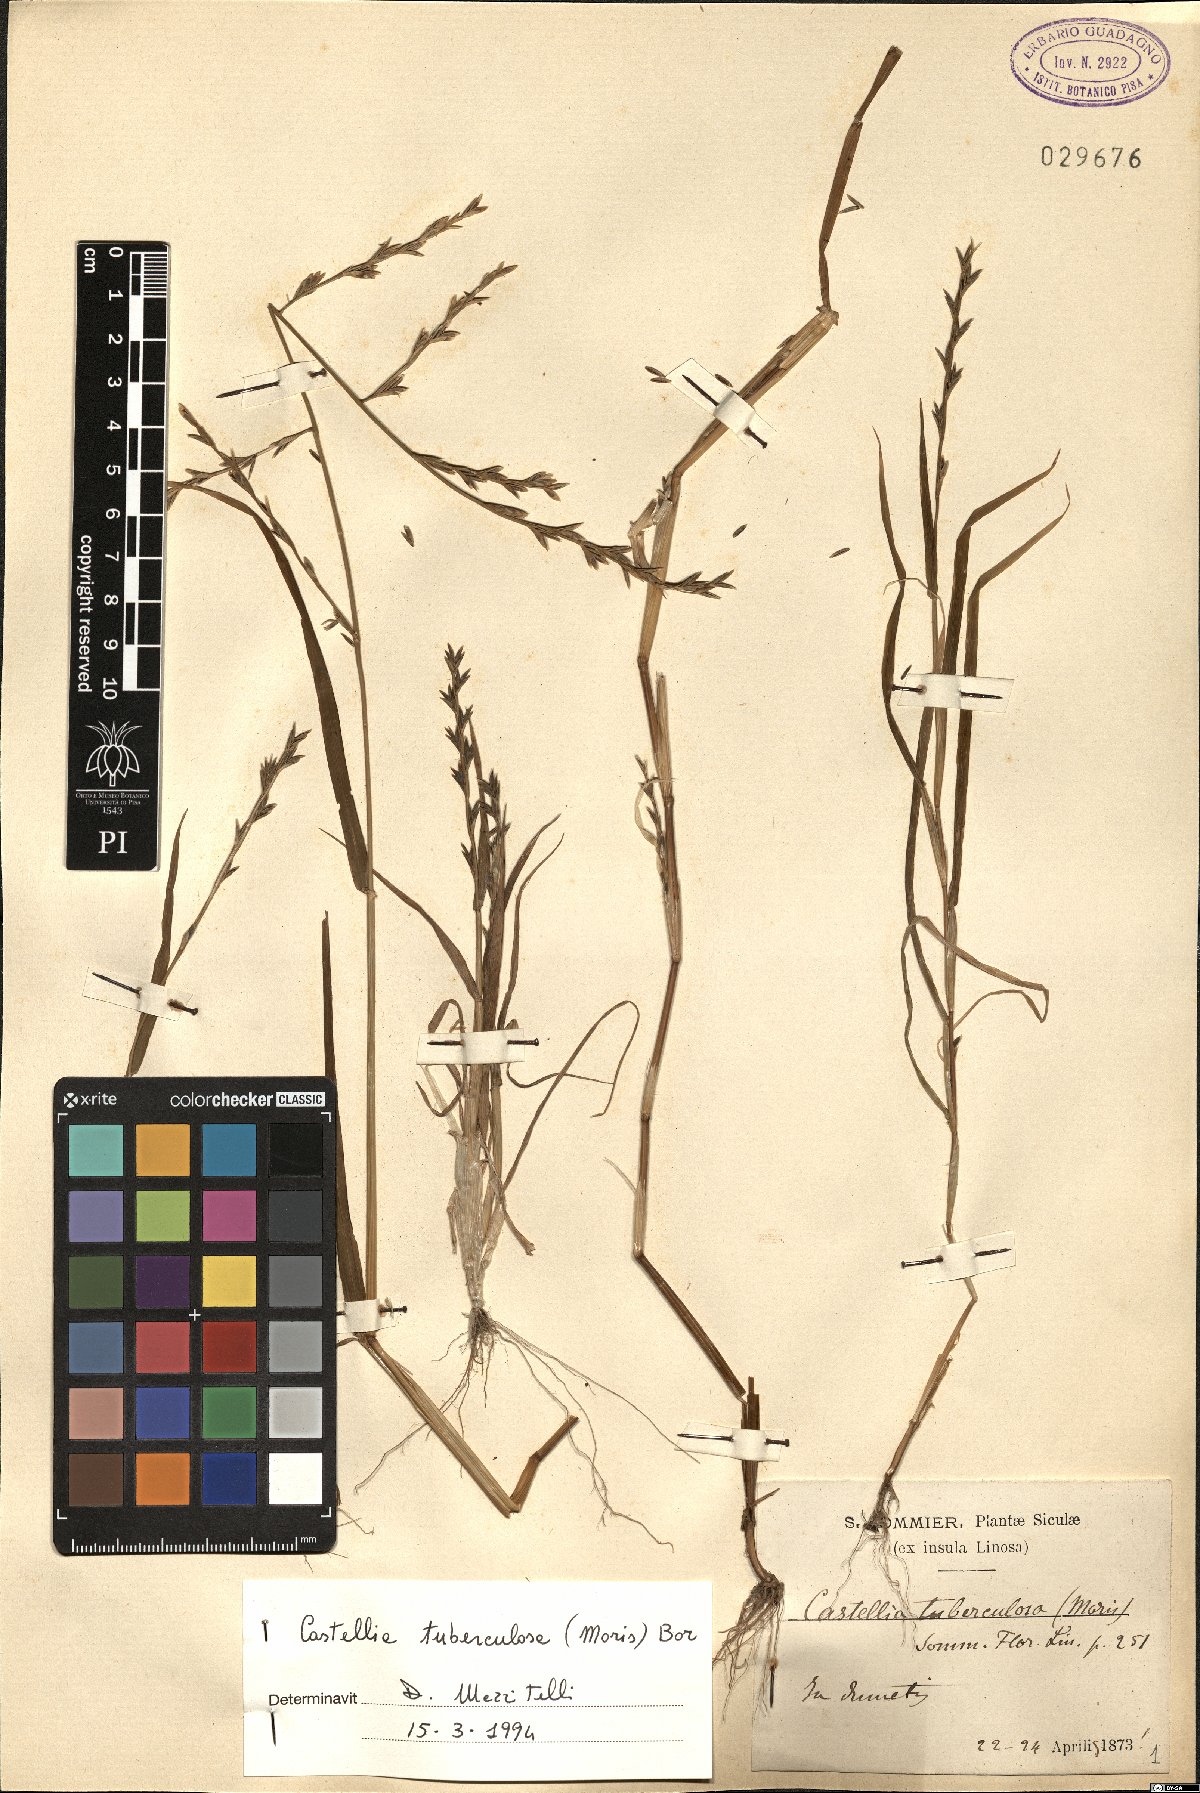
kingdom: Plantae
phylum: Tracheophyta
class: Liliopsida
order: Poales
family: Poaceae
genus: Castellia
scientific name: Castellia tuberculosa
